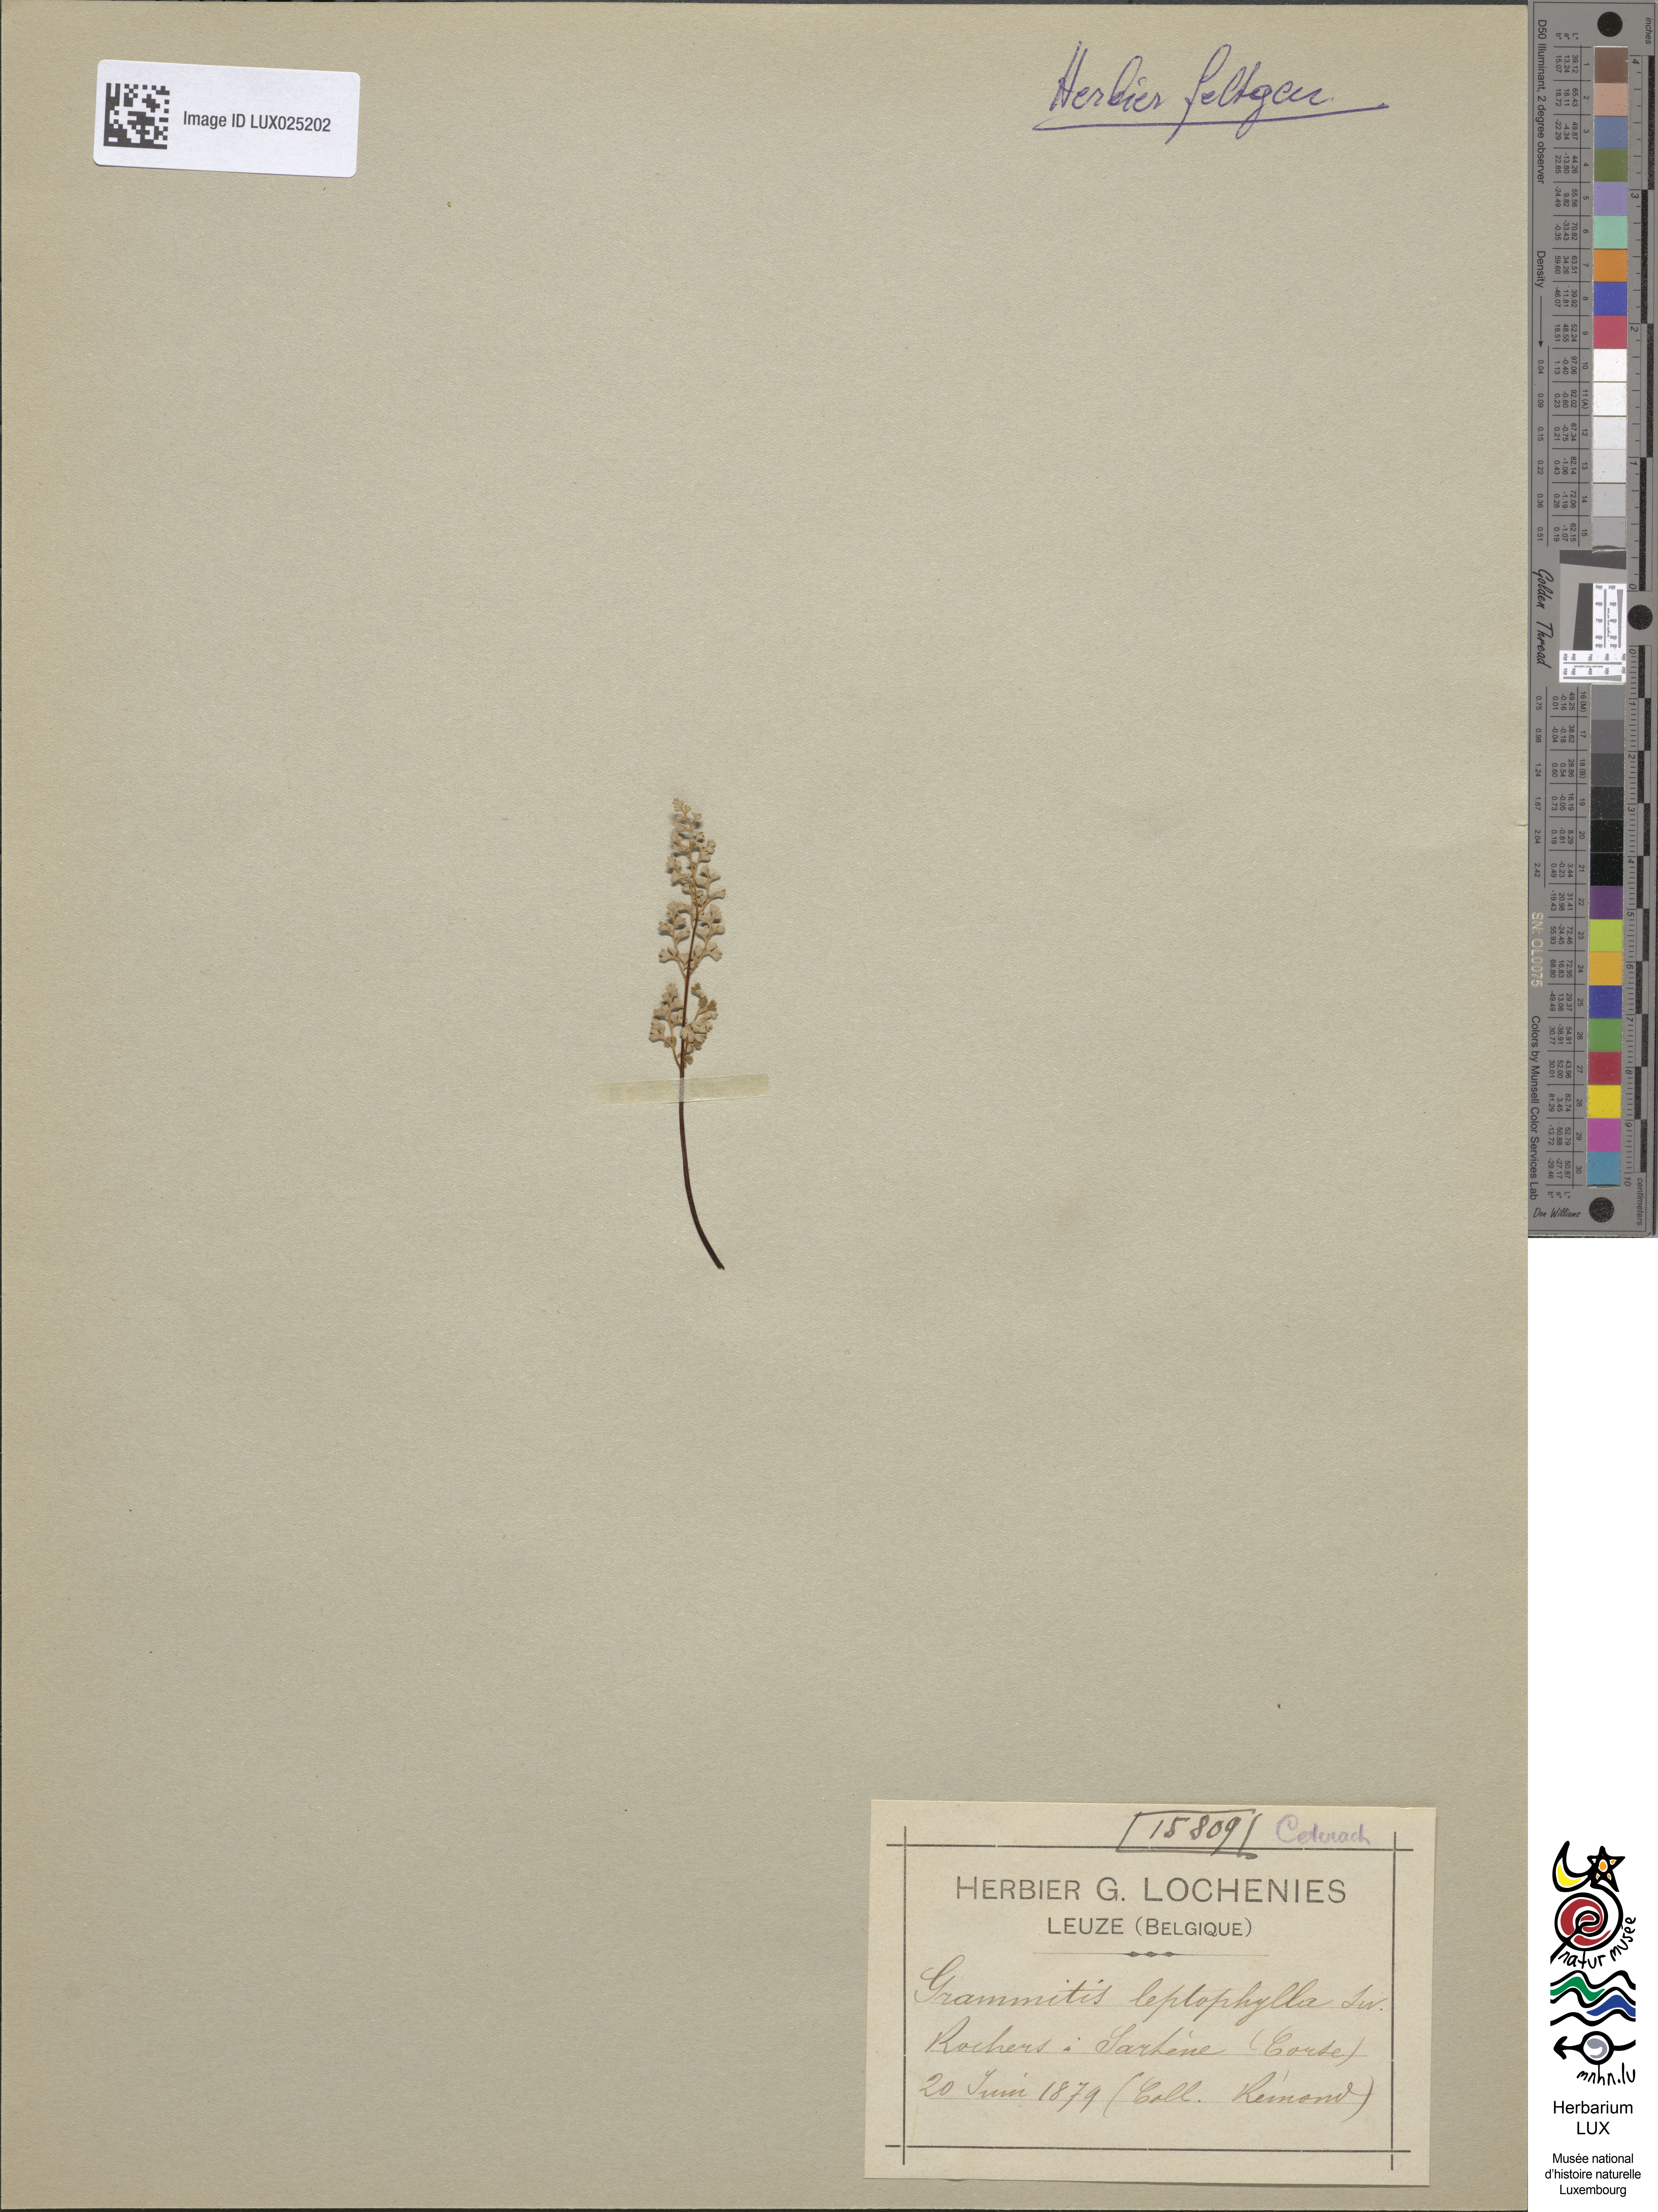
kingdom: Plantae
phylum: Tracheophyta
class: Polypodiopsida
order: Polypodiales
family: Pteridaceae
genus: Anogramma
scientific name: Anogramma leptophylla
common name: Jersey fern
